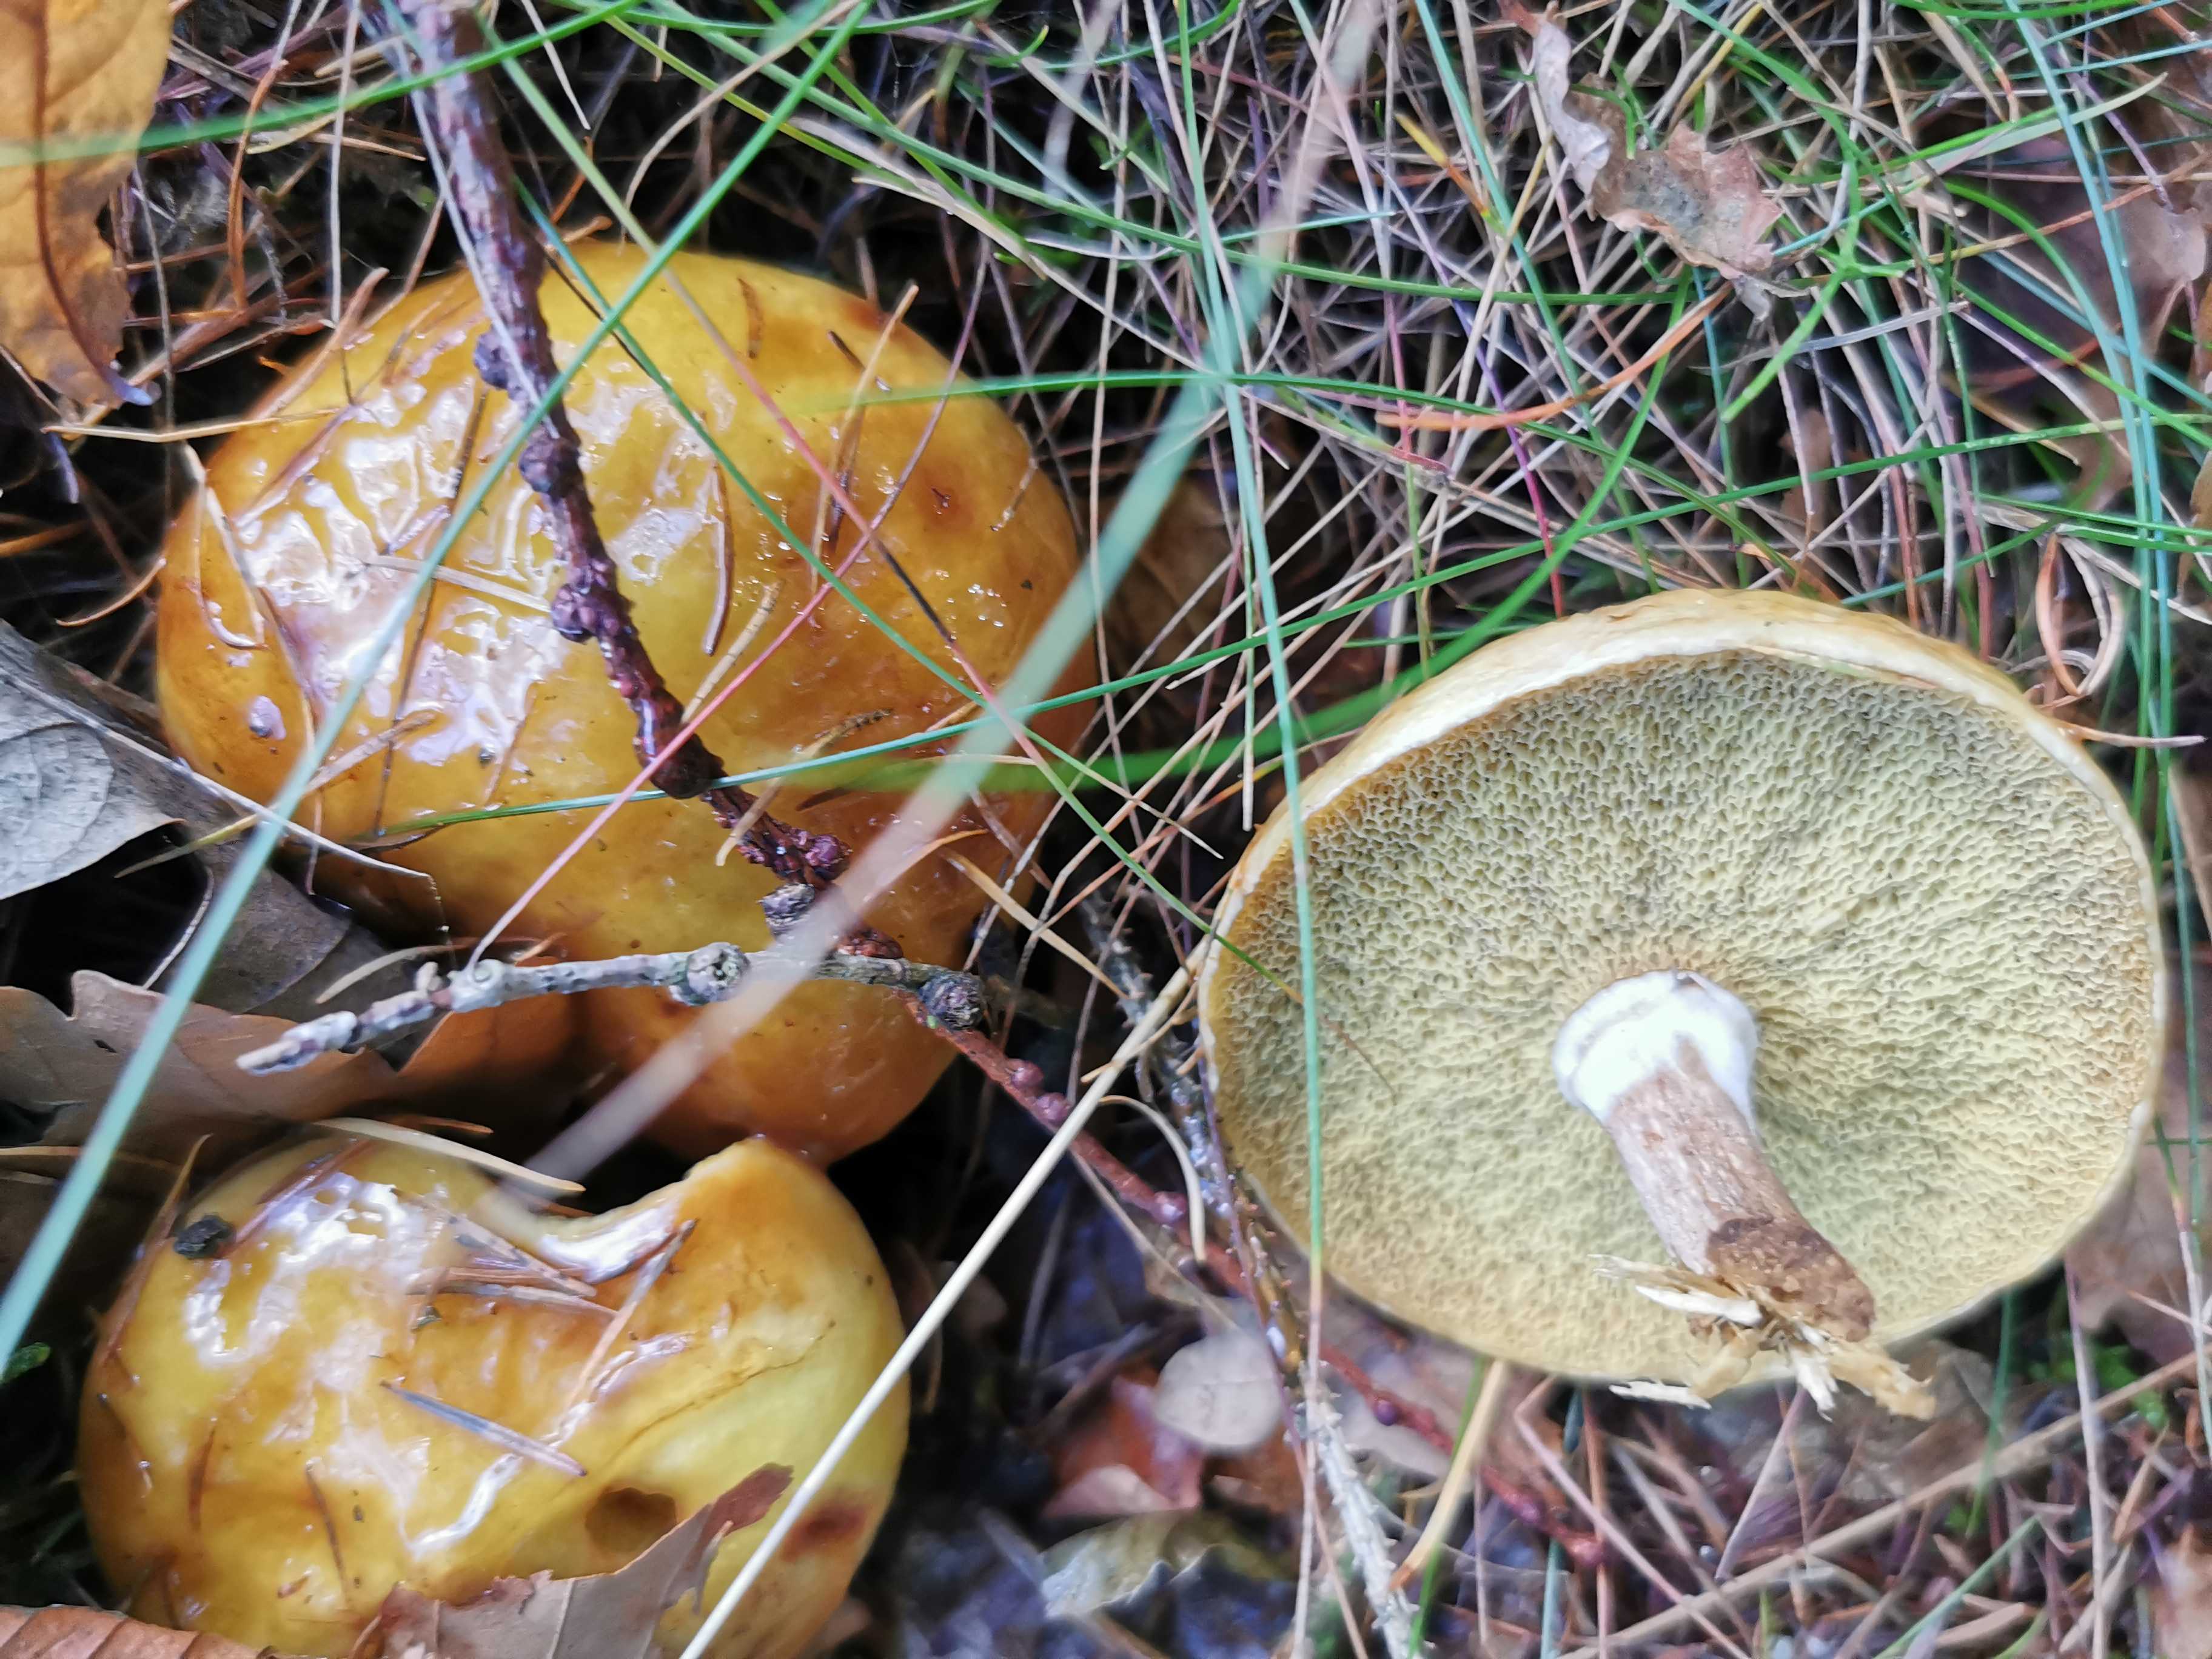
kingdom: Fungi
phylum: Basidiomycota
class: Agaricomycetes
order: Boletales
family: Suillaceae
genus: Suillus
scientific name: Suillus grevillei
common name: lærke-slimrørhat
